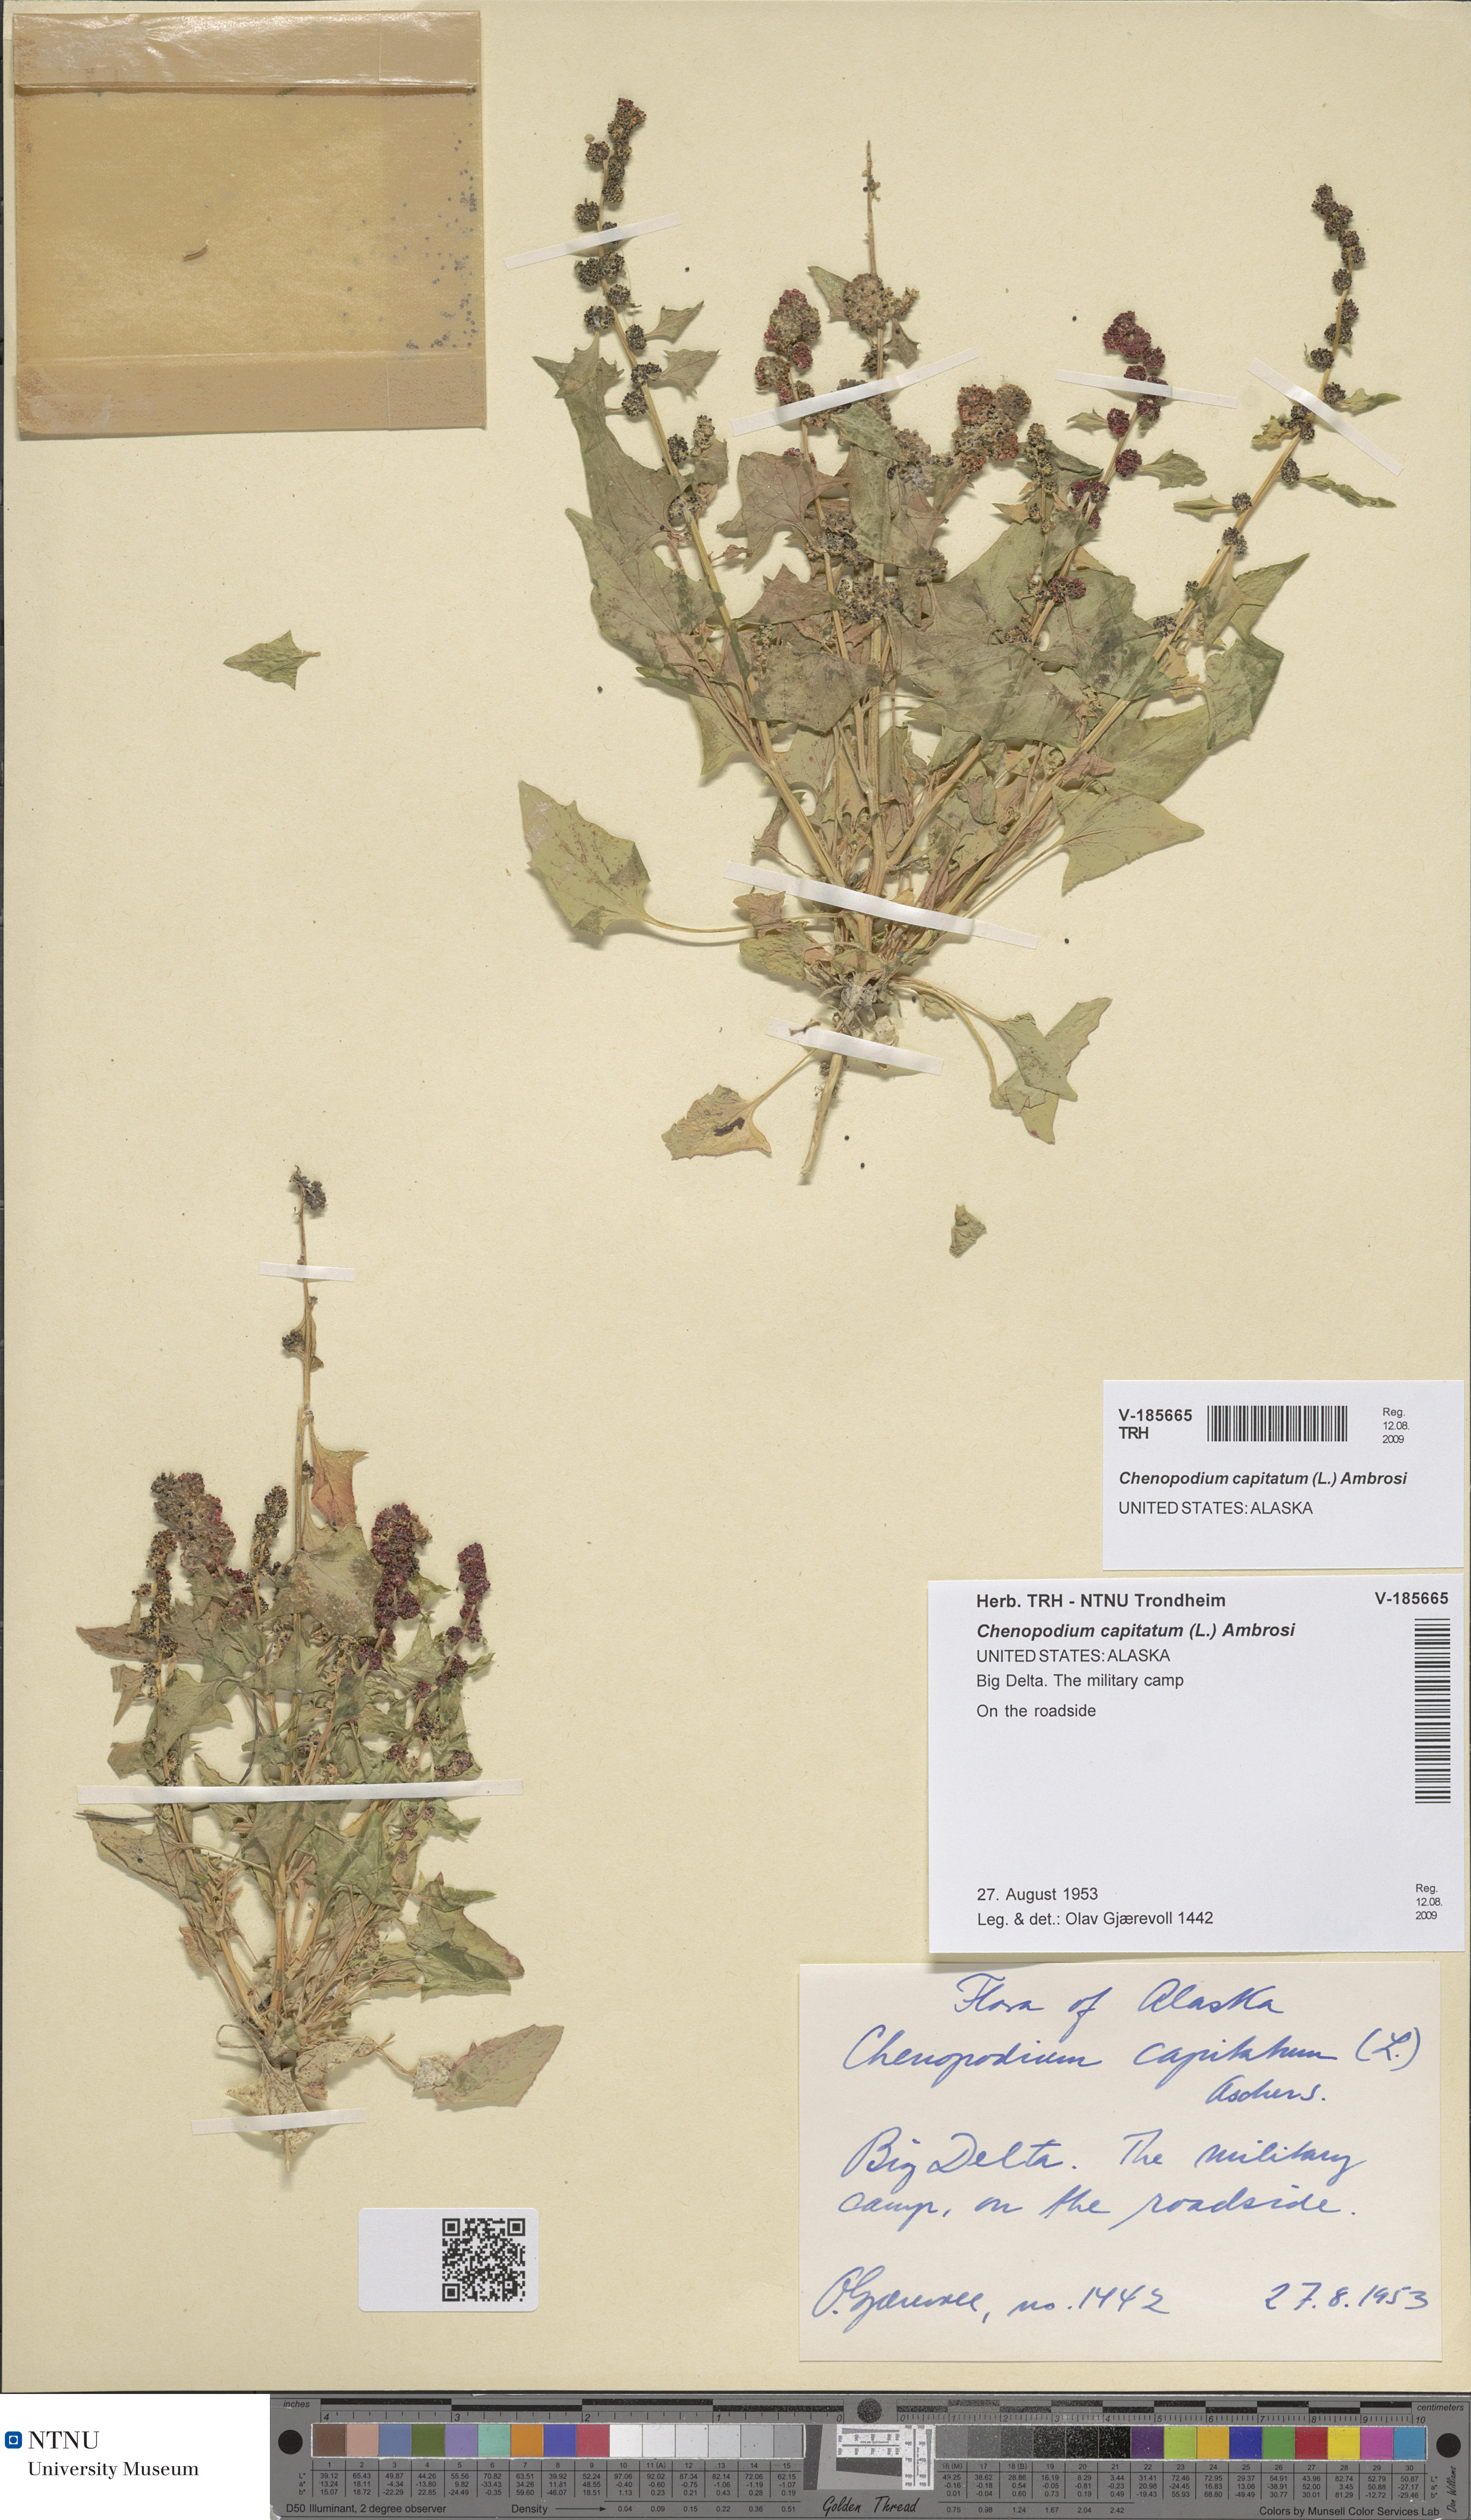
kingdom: Plantae
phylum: Tracheophyta
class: Magnoliopsida
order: Caryophyllales
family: Amaranthaceae
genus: Blitum
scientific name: Blitum capitatum
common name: Strawberry-blight
